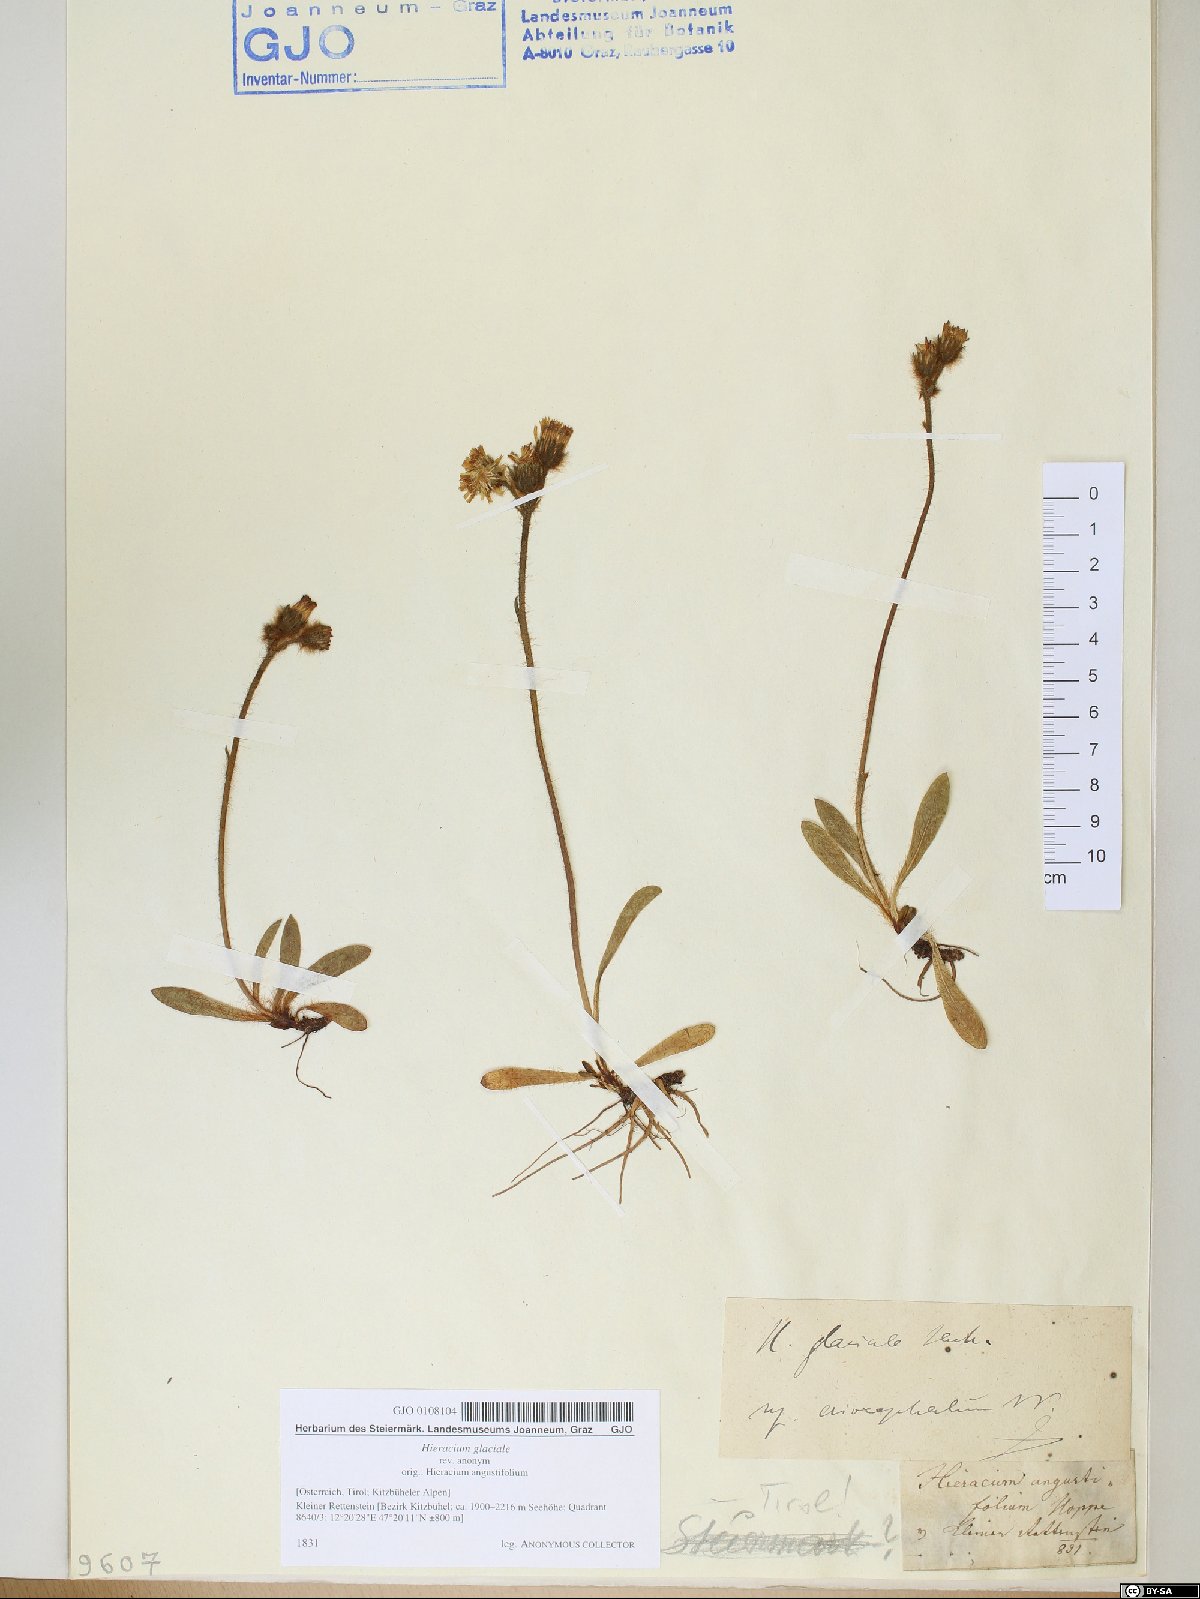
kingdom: Plantae
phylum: Tracheophyta
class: Magnoliopsida
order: Asterales
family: Asteraceae
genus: Pilosella
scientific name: Pilosella glacialis
